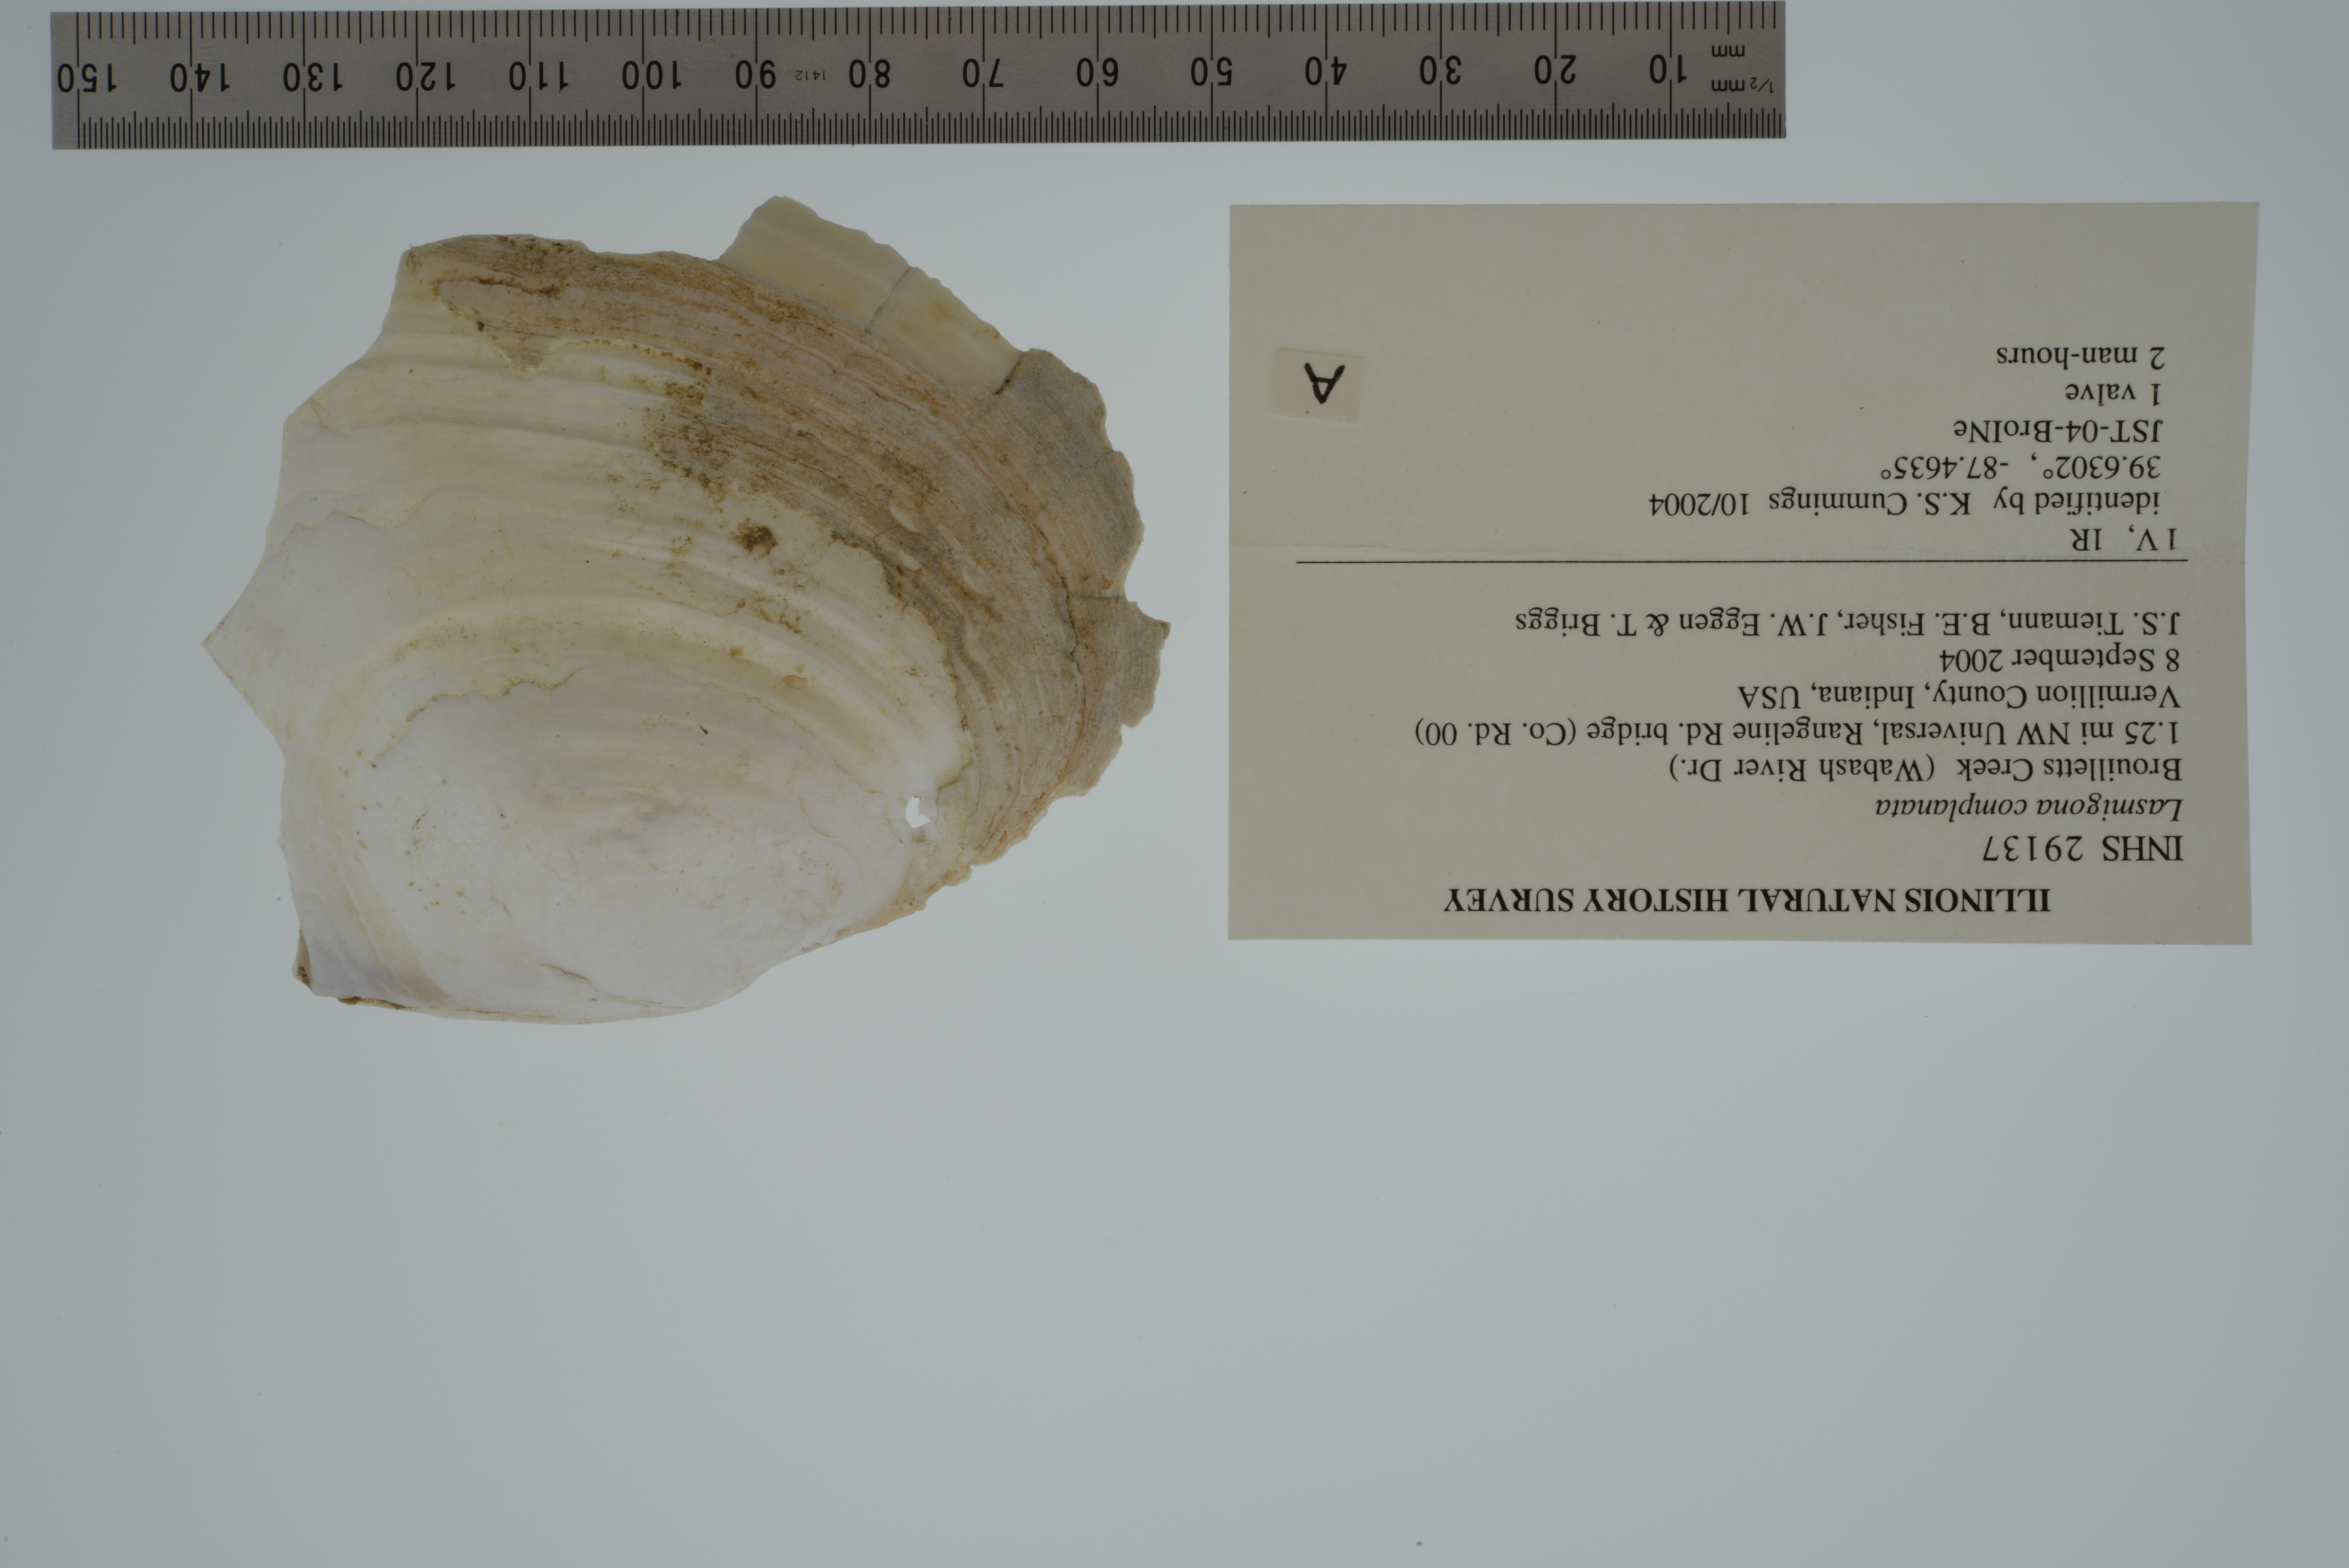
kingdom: Animalia
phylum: Mollusca
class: Bivalvia
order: Unionida
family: Unionidae
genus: Lasmigona
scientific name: Lasmigona complanata
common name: White heelsplitter
